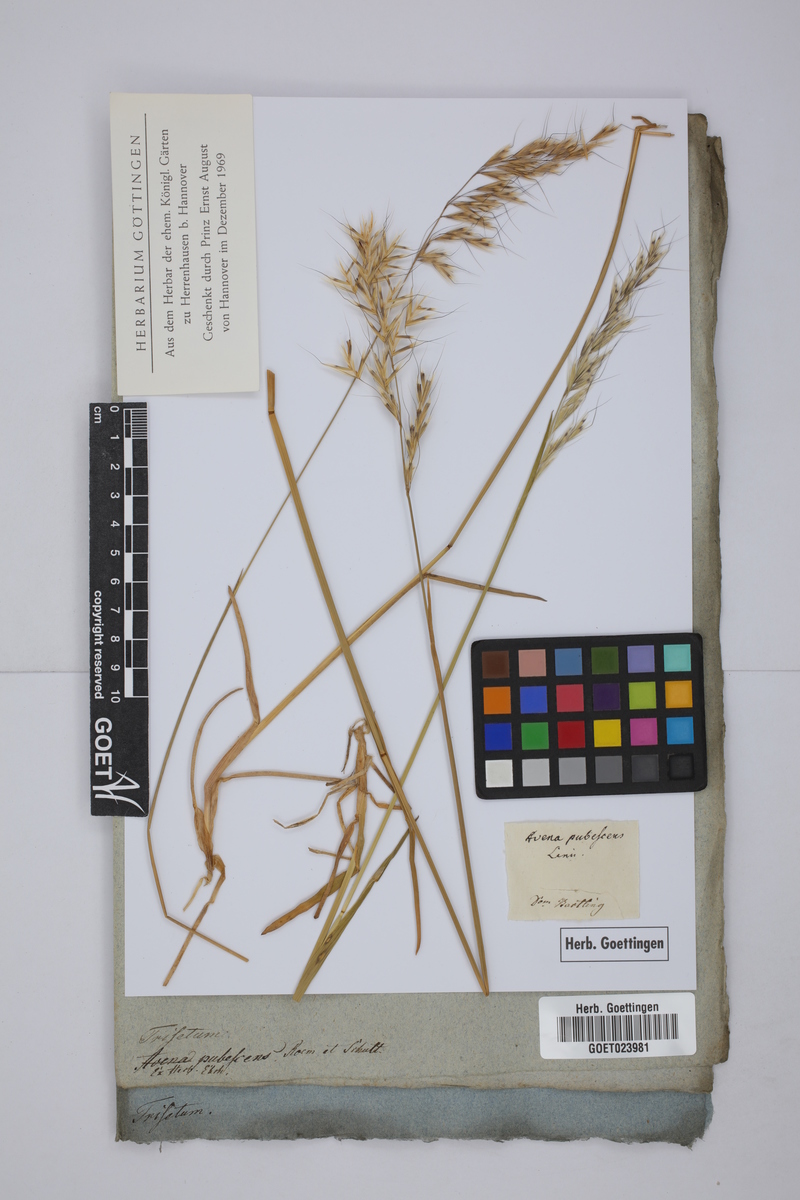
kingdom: Plantae
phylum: Tracheophyta
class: Liliopsida
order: Poales
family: Poaceae
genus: Avenula
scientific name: Avenula pubescens
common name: Downy alpine oatgrass
